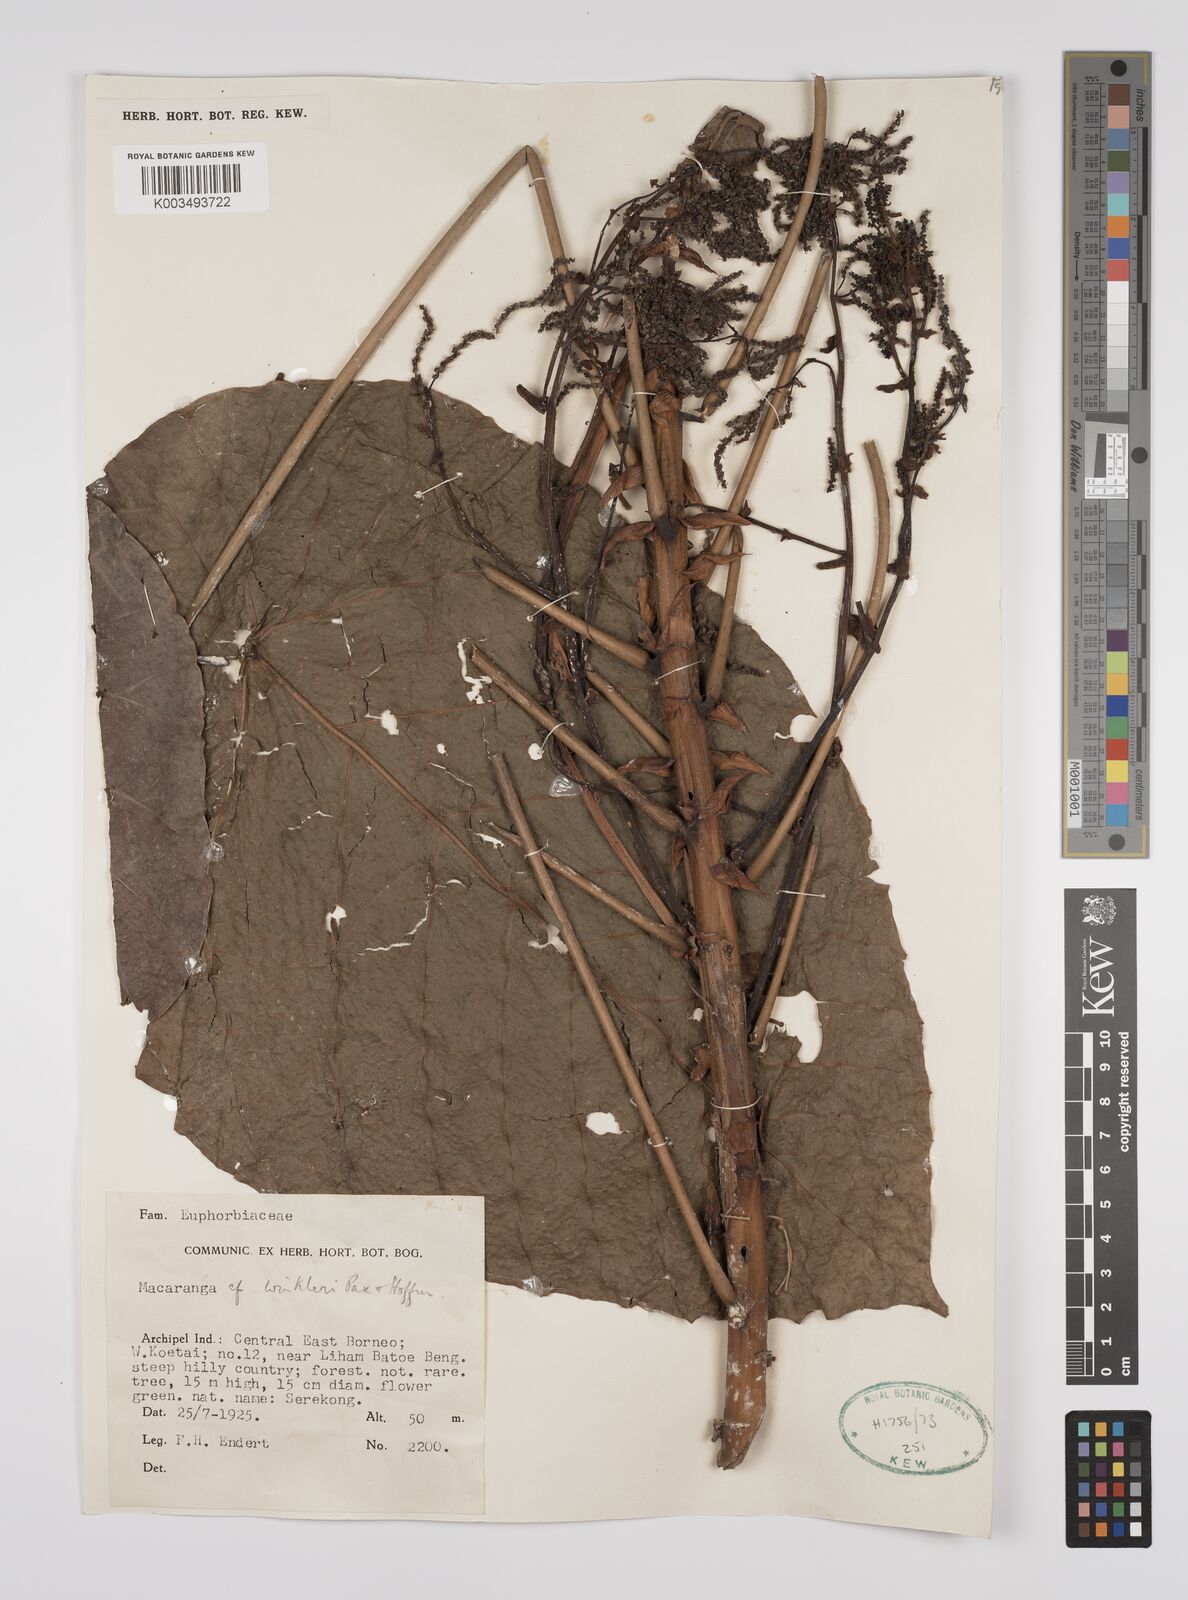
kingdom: Plantae
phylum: Tracheophyta
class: Magnoliopsida
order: Malpighiales
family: Euphorbiaceae
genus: Macaranga
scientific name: Macaranga winkleri
